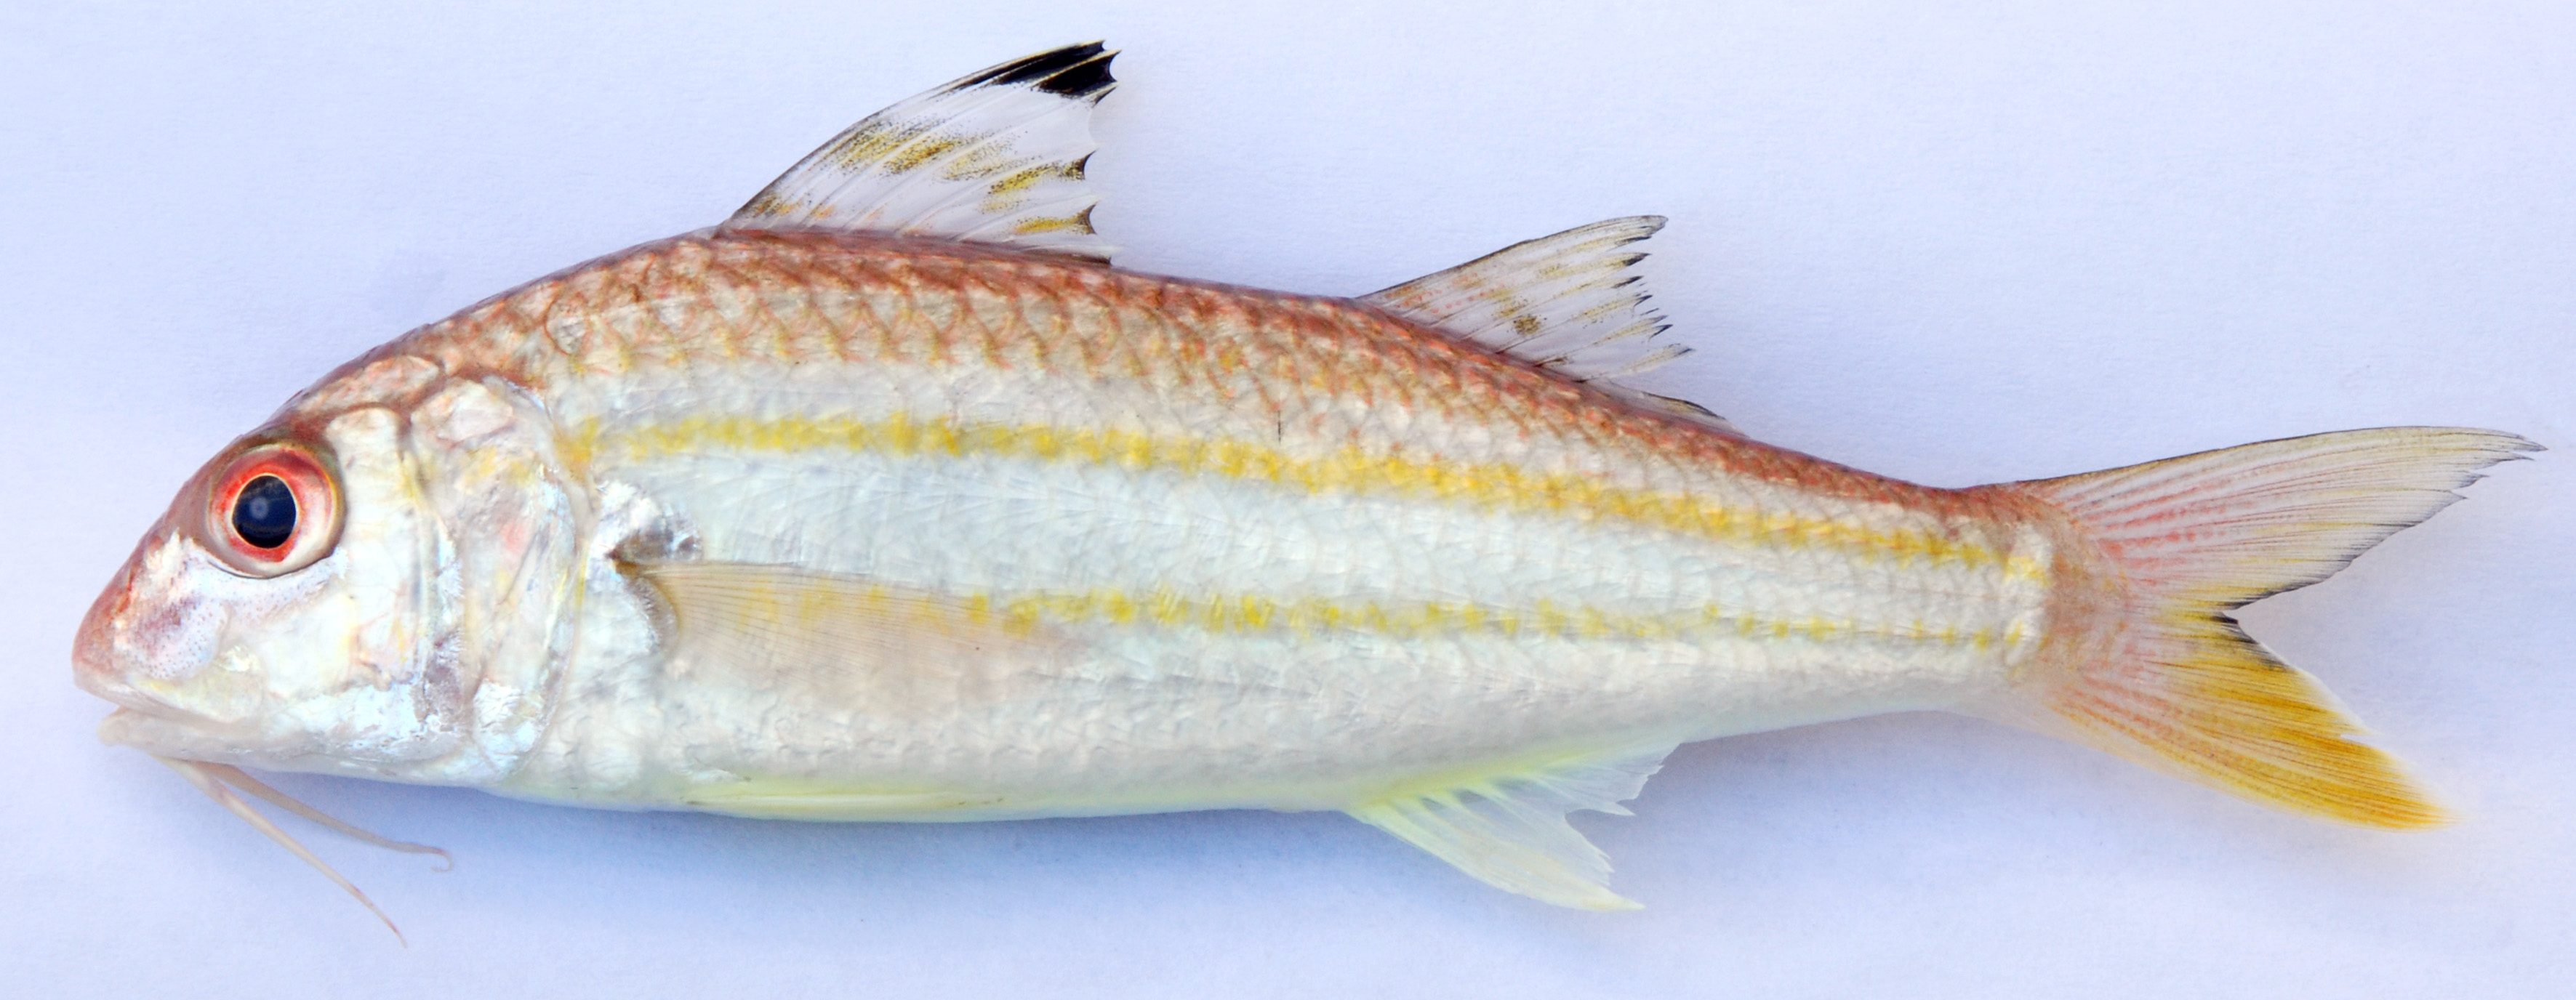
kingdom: Animalia
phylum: Chordata
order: Perciformes
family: Mullidae
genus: Upeneus
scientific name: Upeneus sulphureus
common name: Sulphur goatfish
